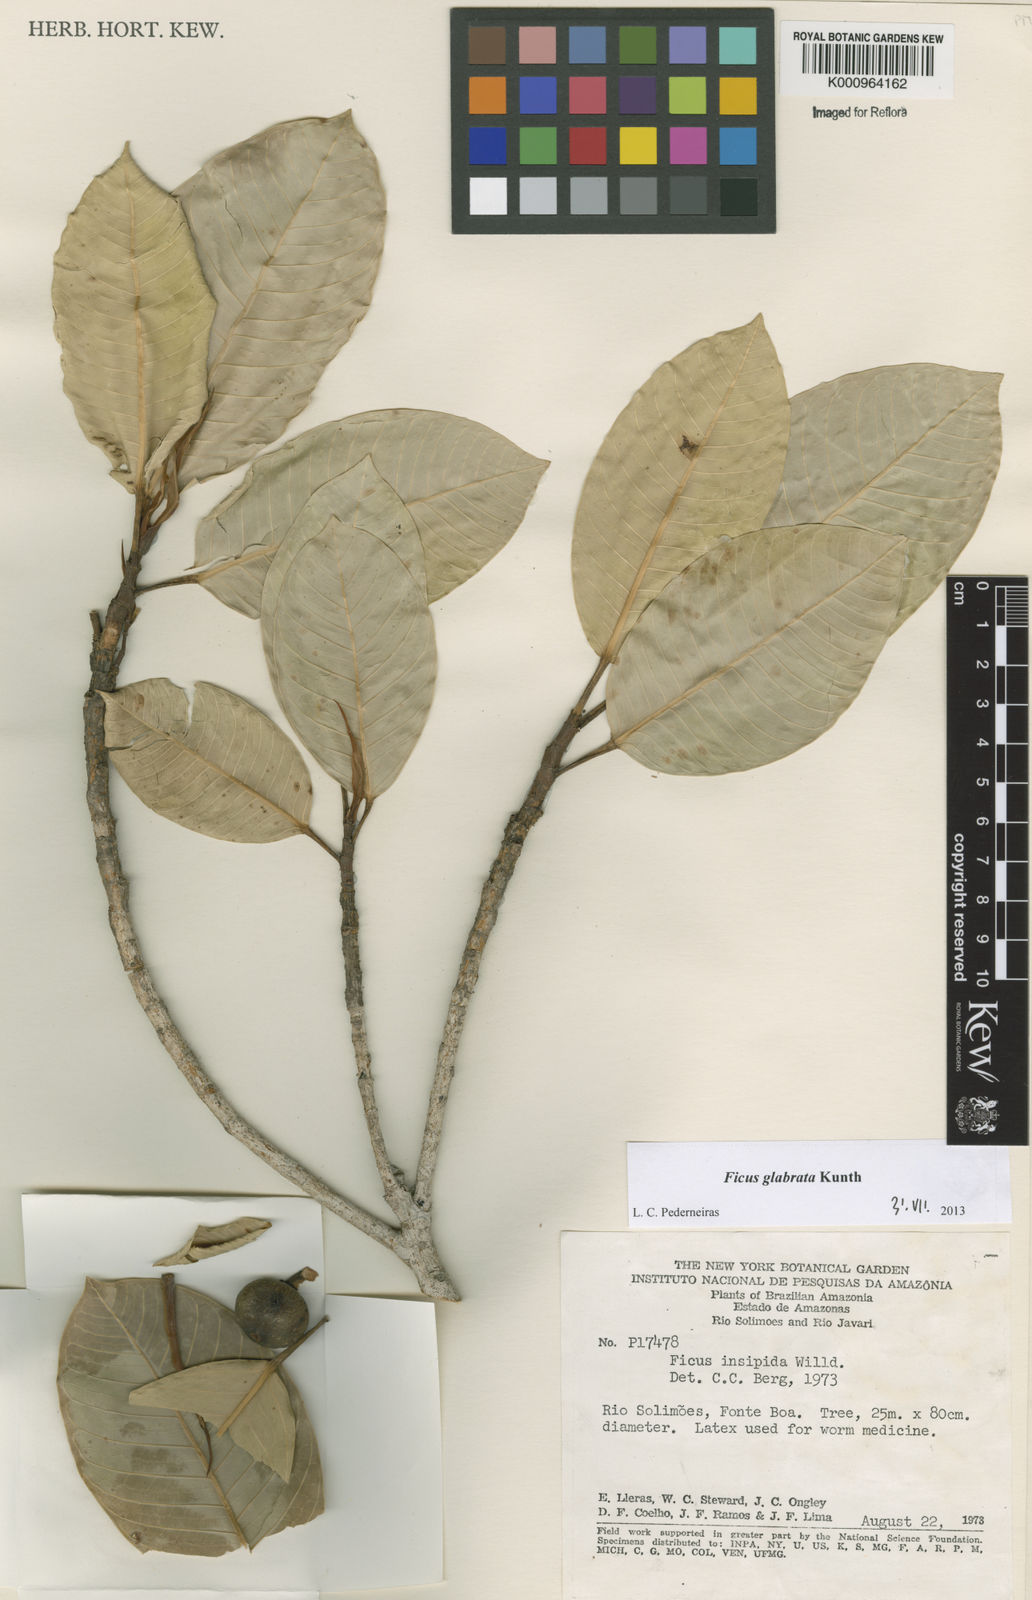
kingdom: Plantae
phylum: Tracheophyta
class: Magnoliopsida
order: Rosales
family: Moraceae
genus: Ficus
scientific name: Ficus insipida
